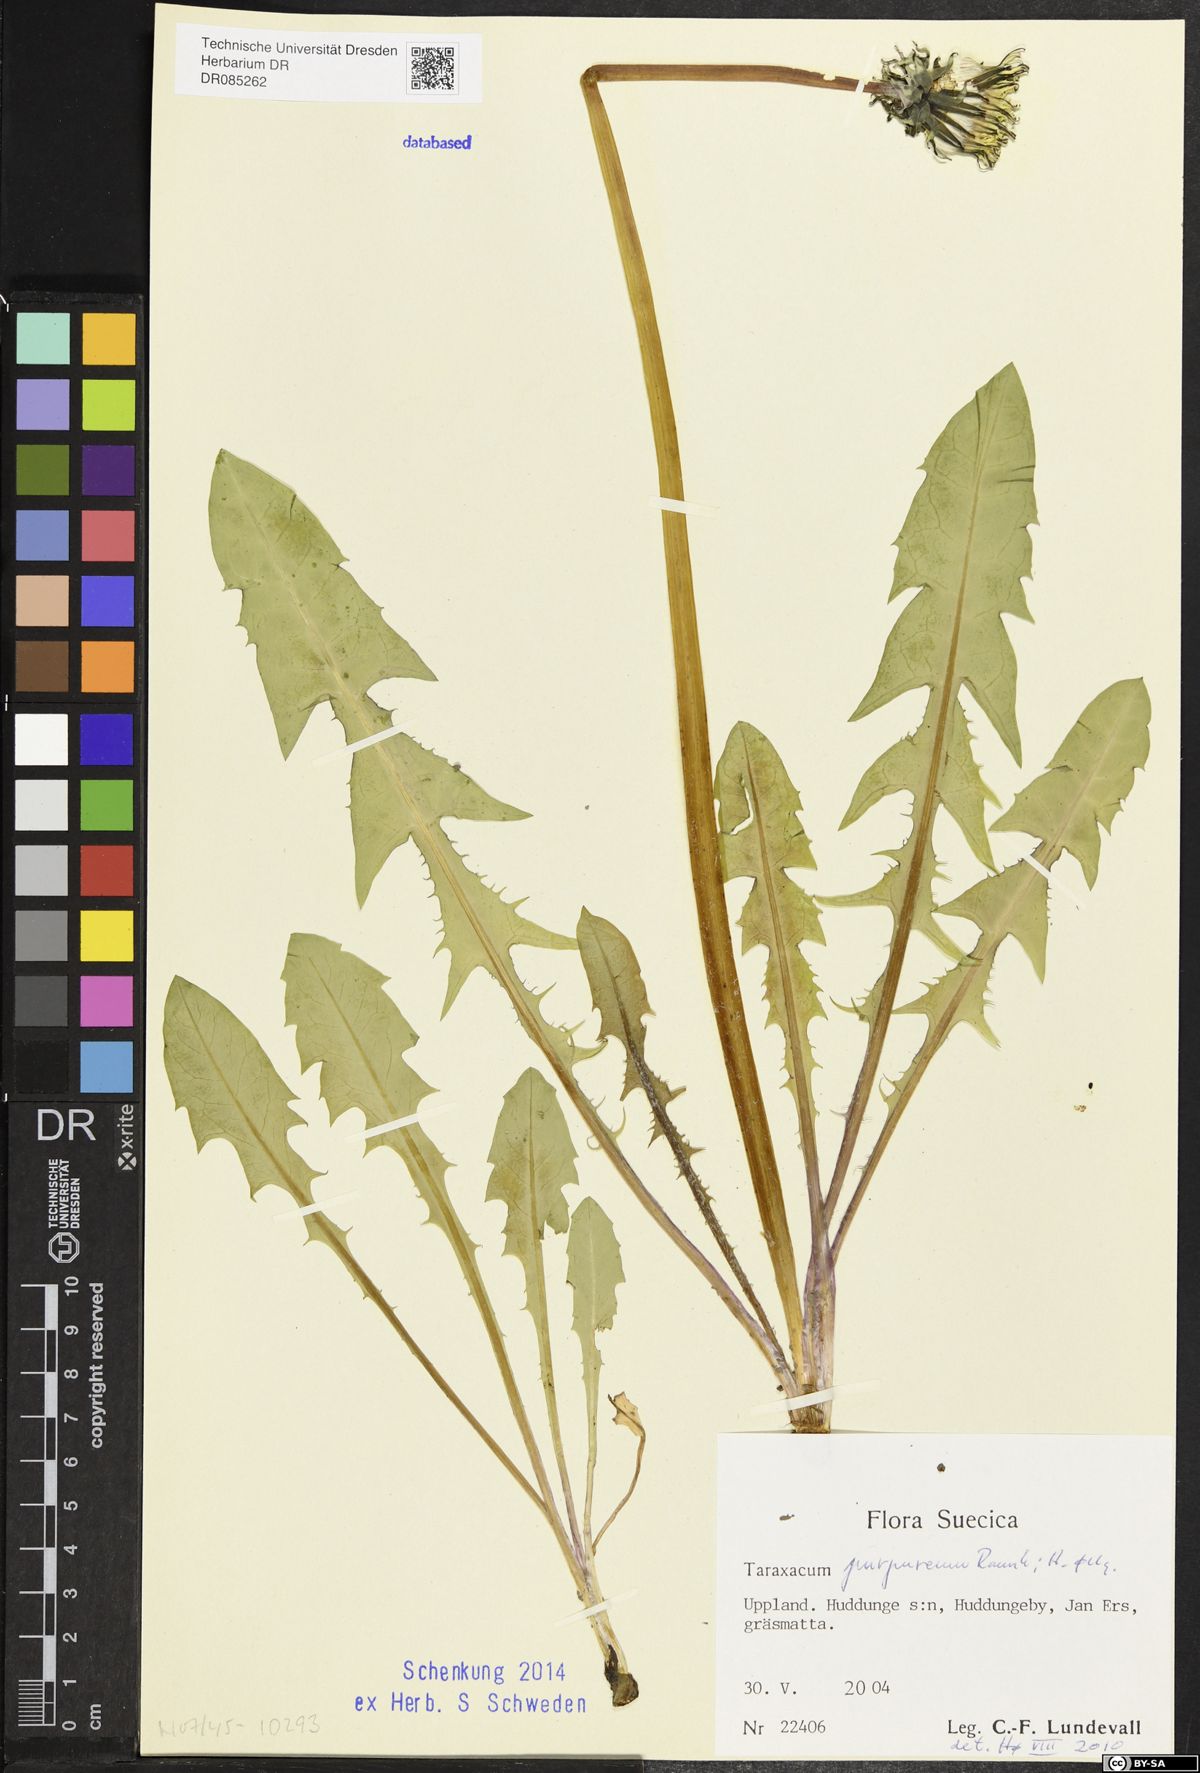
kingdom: Plantae
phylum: Tracheophyta
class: Magnoliopsida
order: Asterales
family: Asteraceae
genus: Taraxacum
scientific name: Taraxacum purpureum
